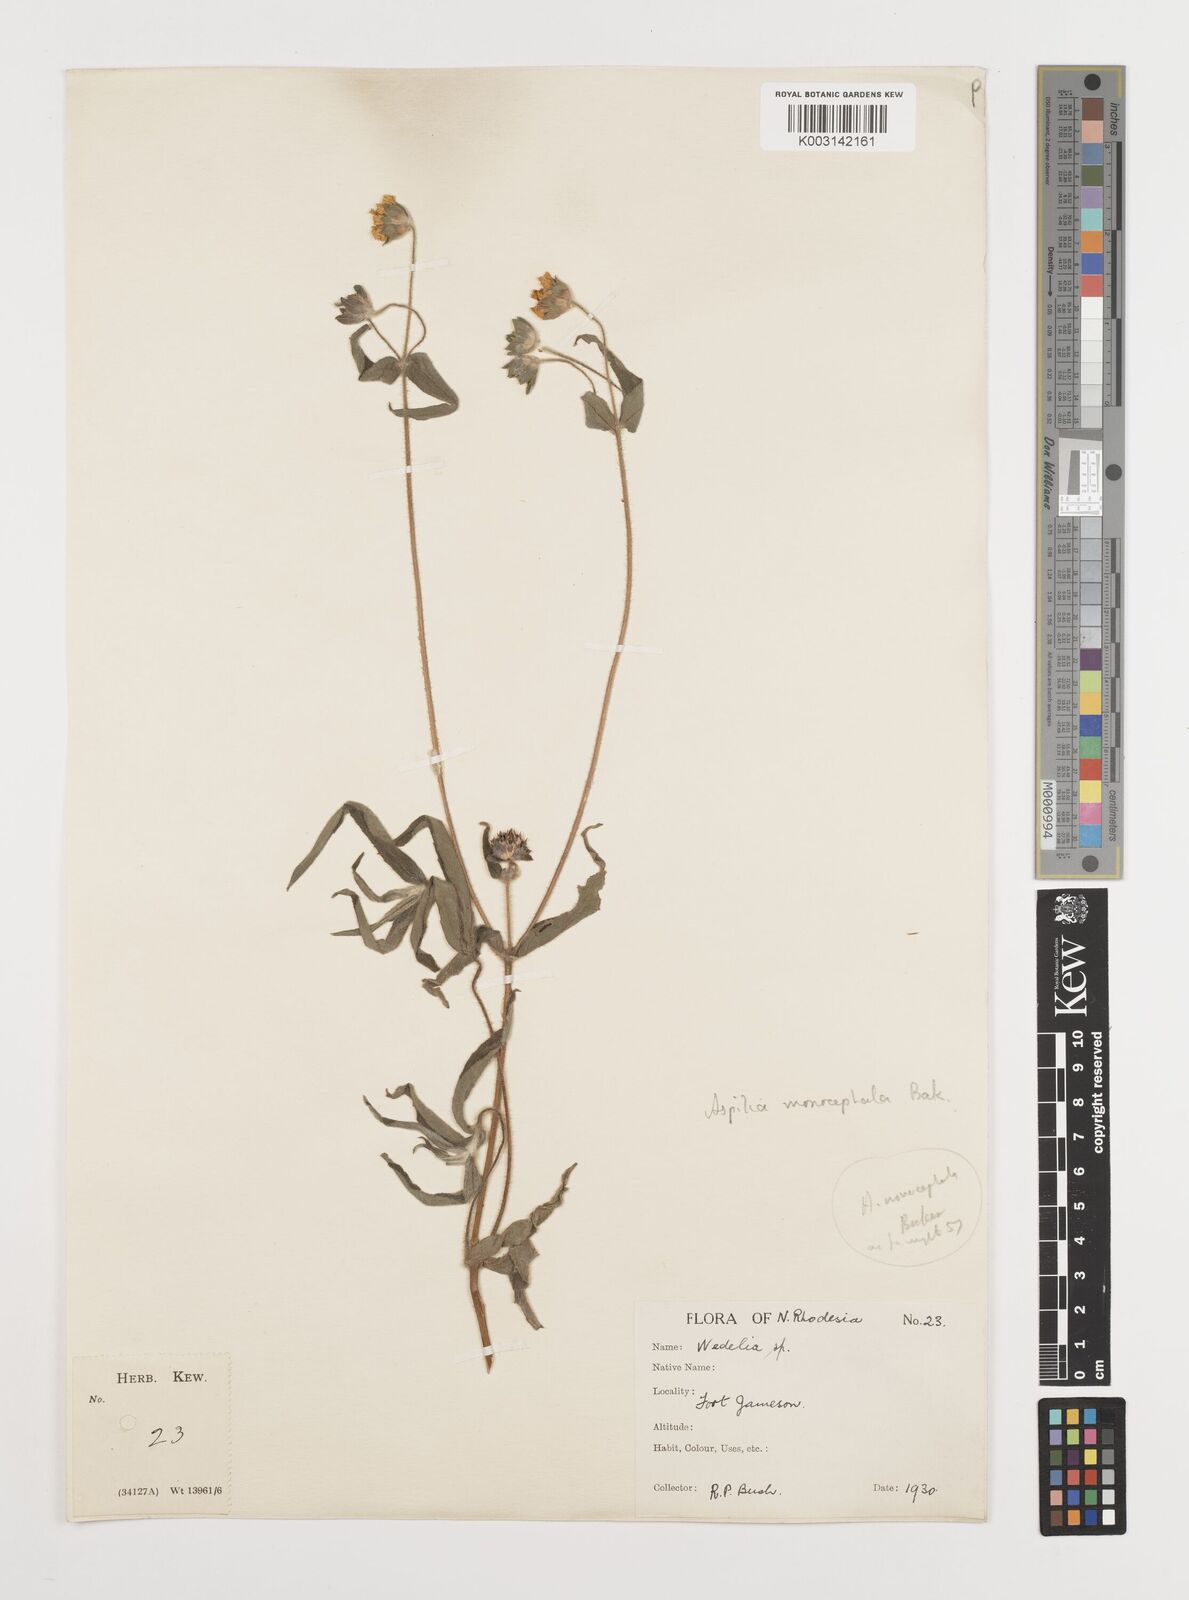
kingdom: Plantae
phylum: Tracheophyta
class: Magnoliopsida
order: Asterales
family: Asteraceae
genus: Aspilia
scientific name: Aspilia natalensis
